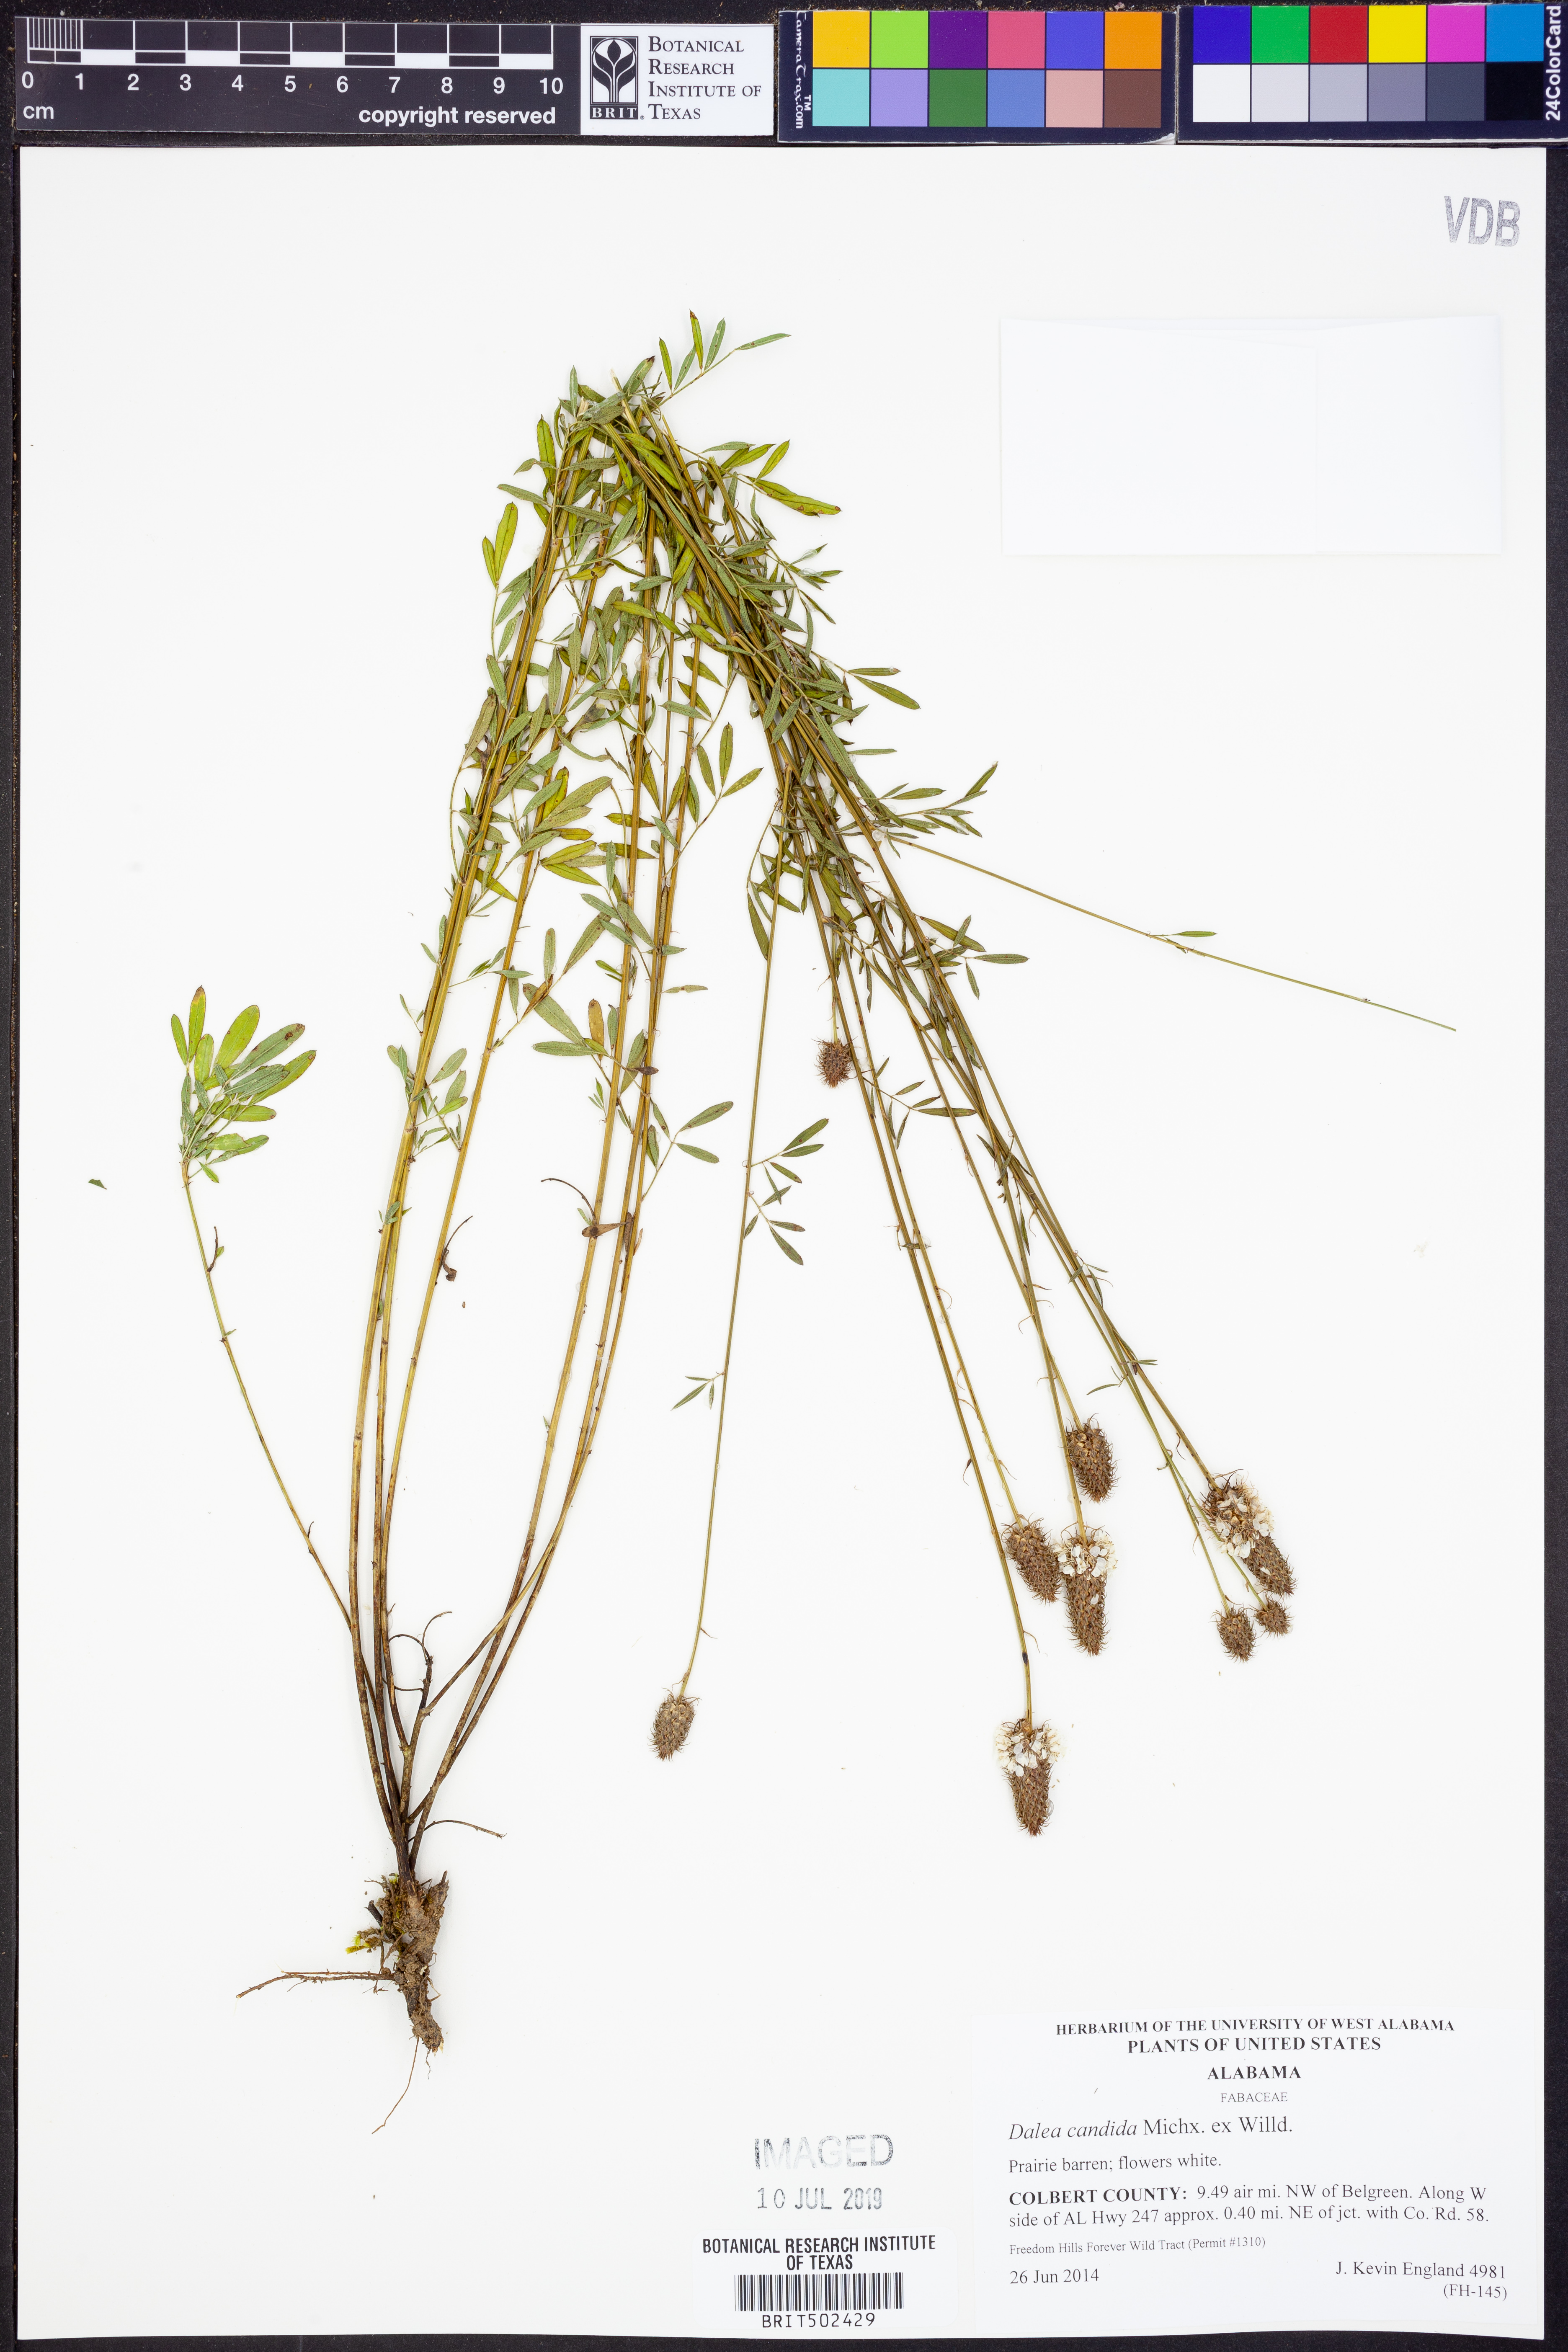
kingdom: Plantae
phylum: Tracheophyta
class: Magnoliopsida
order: Fabales
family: Fabaceae
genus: Dalea
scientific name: Dalea candida
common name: White prairie-clover
